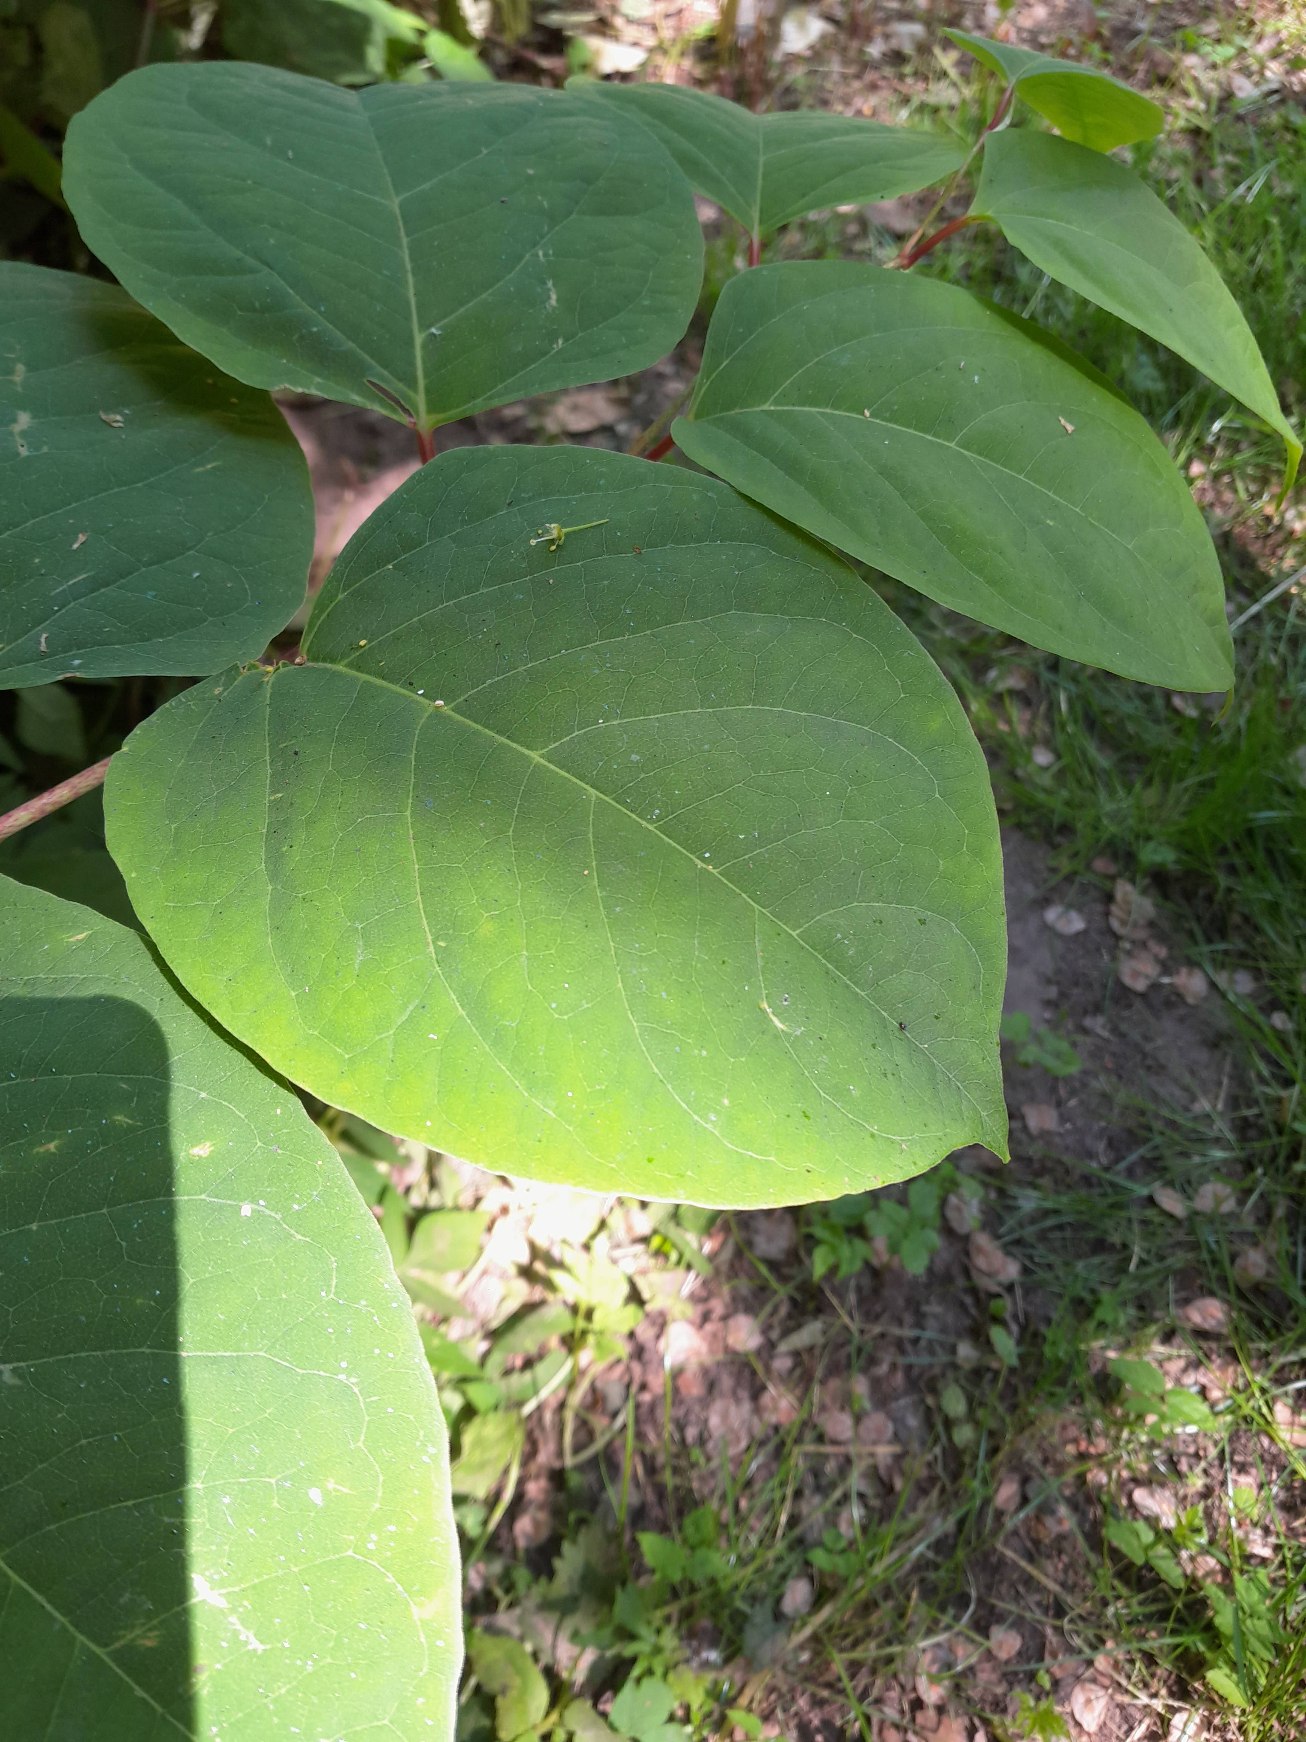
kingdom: Plantae
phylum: Tracheophyta
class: Magnoliopsida
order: Caryophyllales
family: Polygonaceae
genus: Reynoutria
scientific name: Reynoutria japonica
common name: Japan-pileurt
